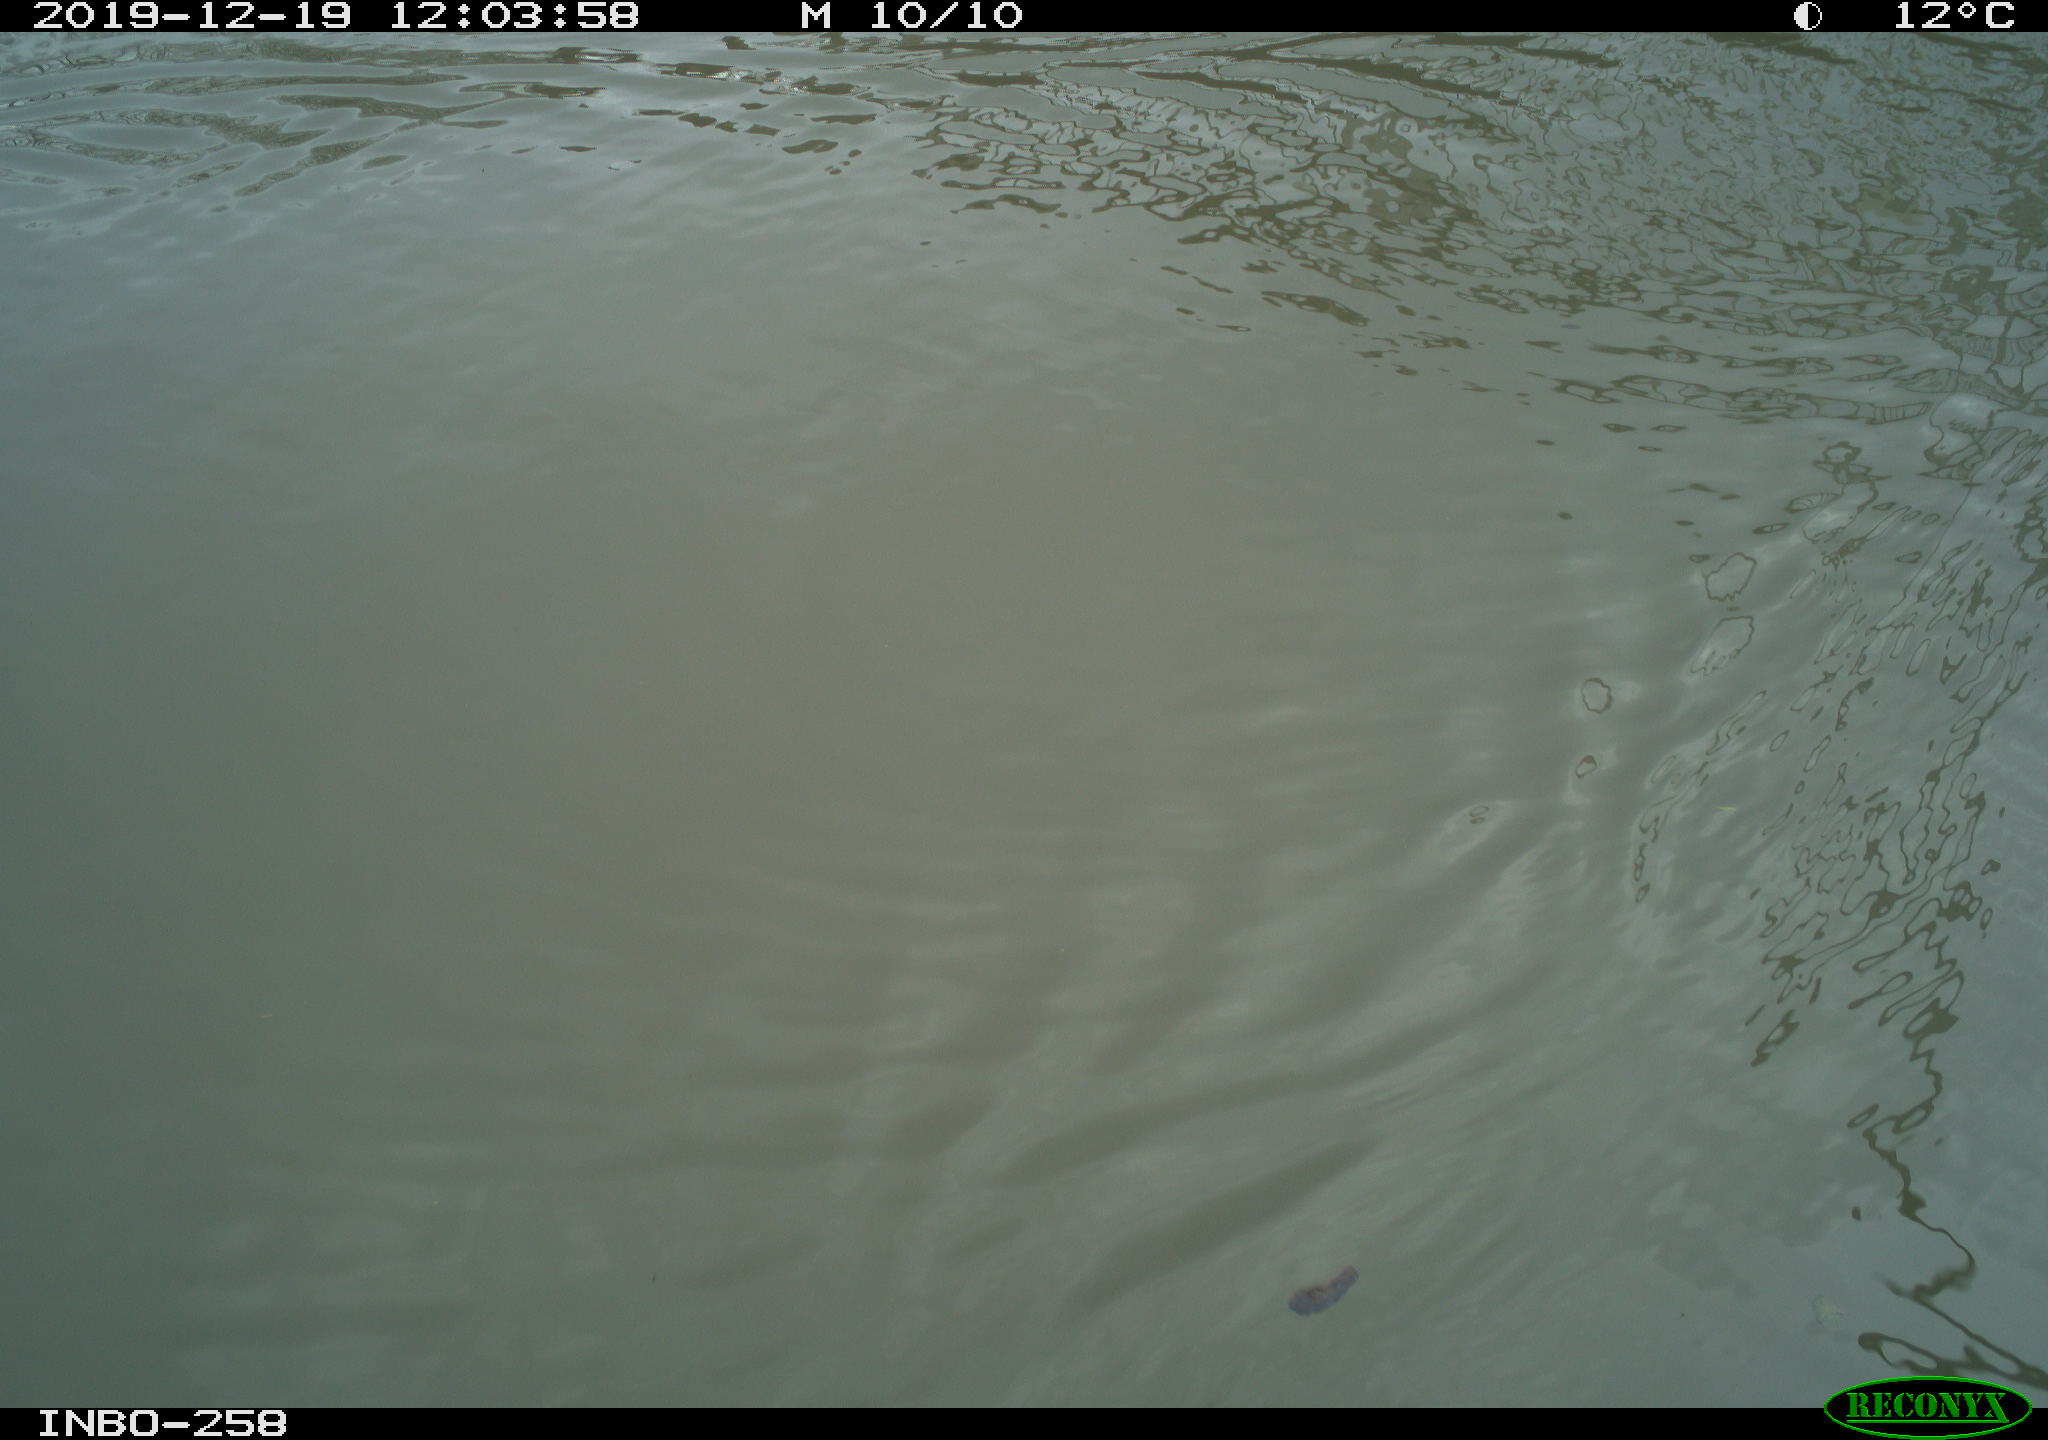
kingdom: Animalia
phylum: Chordata
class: Aves
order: Gruiformes
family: Rallidae
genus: Gallinula
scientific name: Gallinula chloropus
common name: Common moorhen
